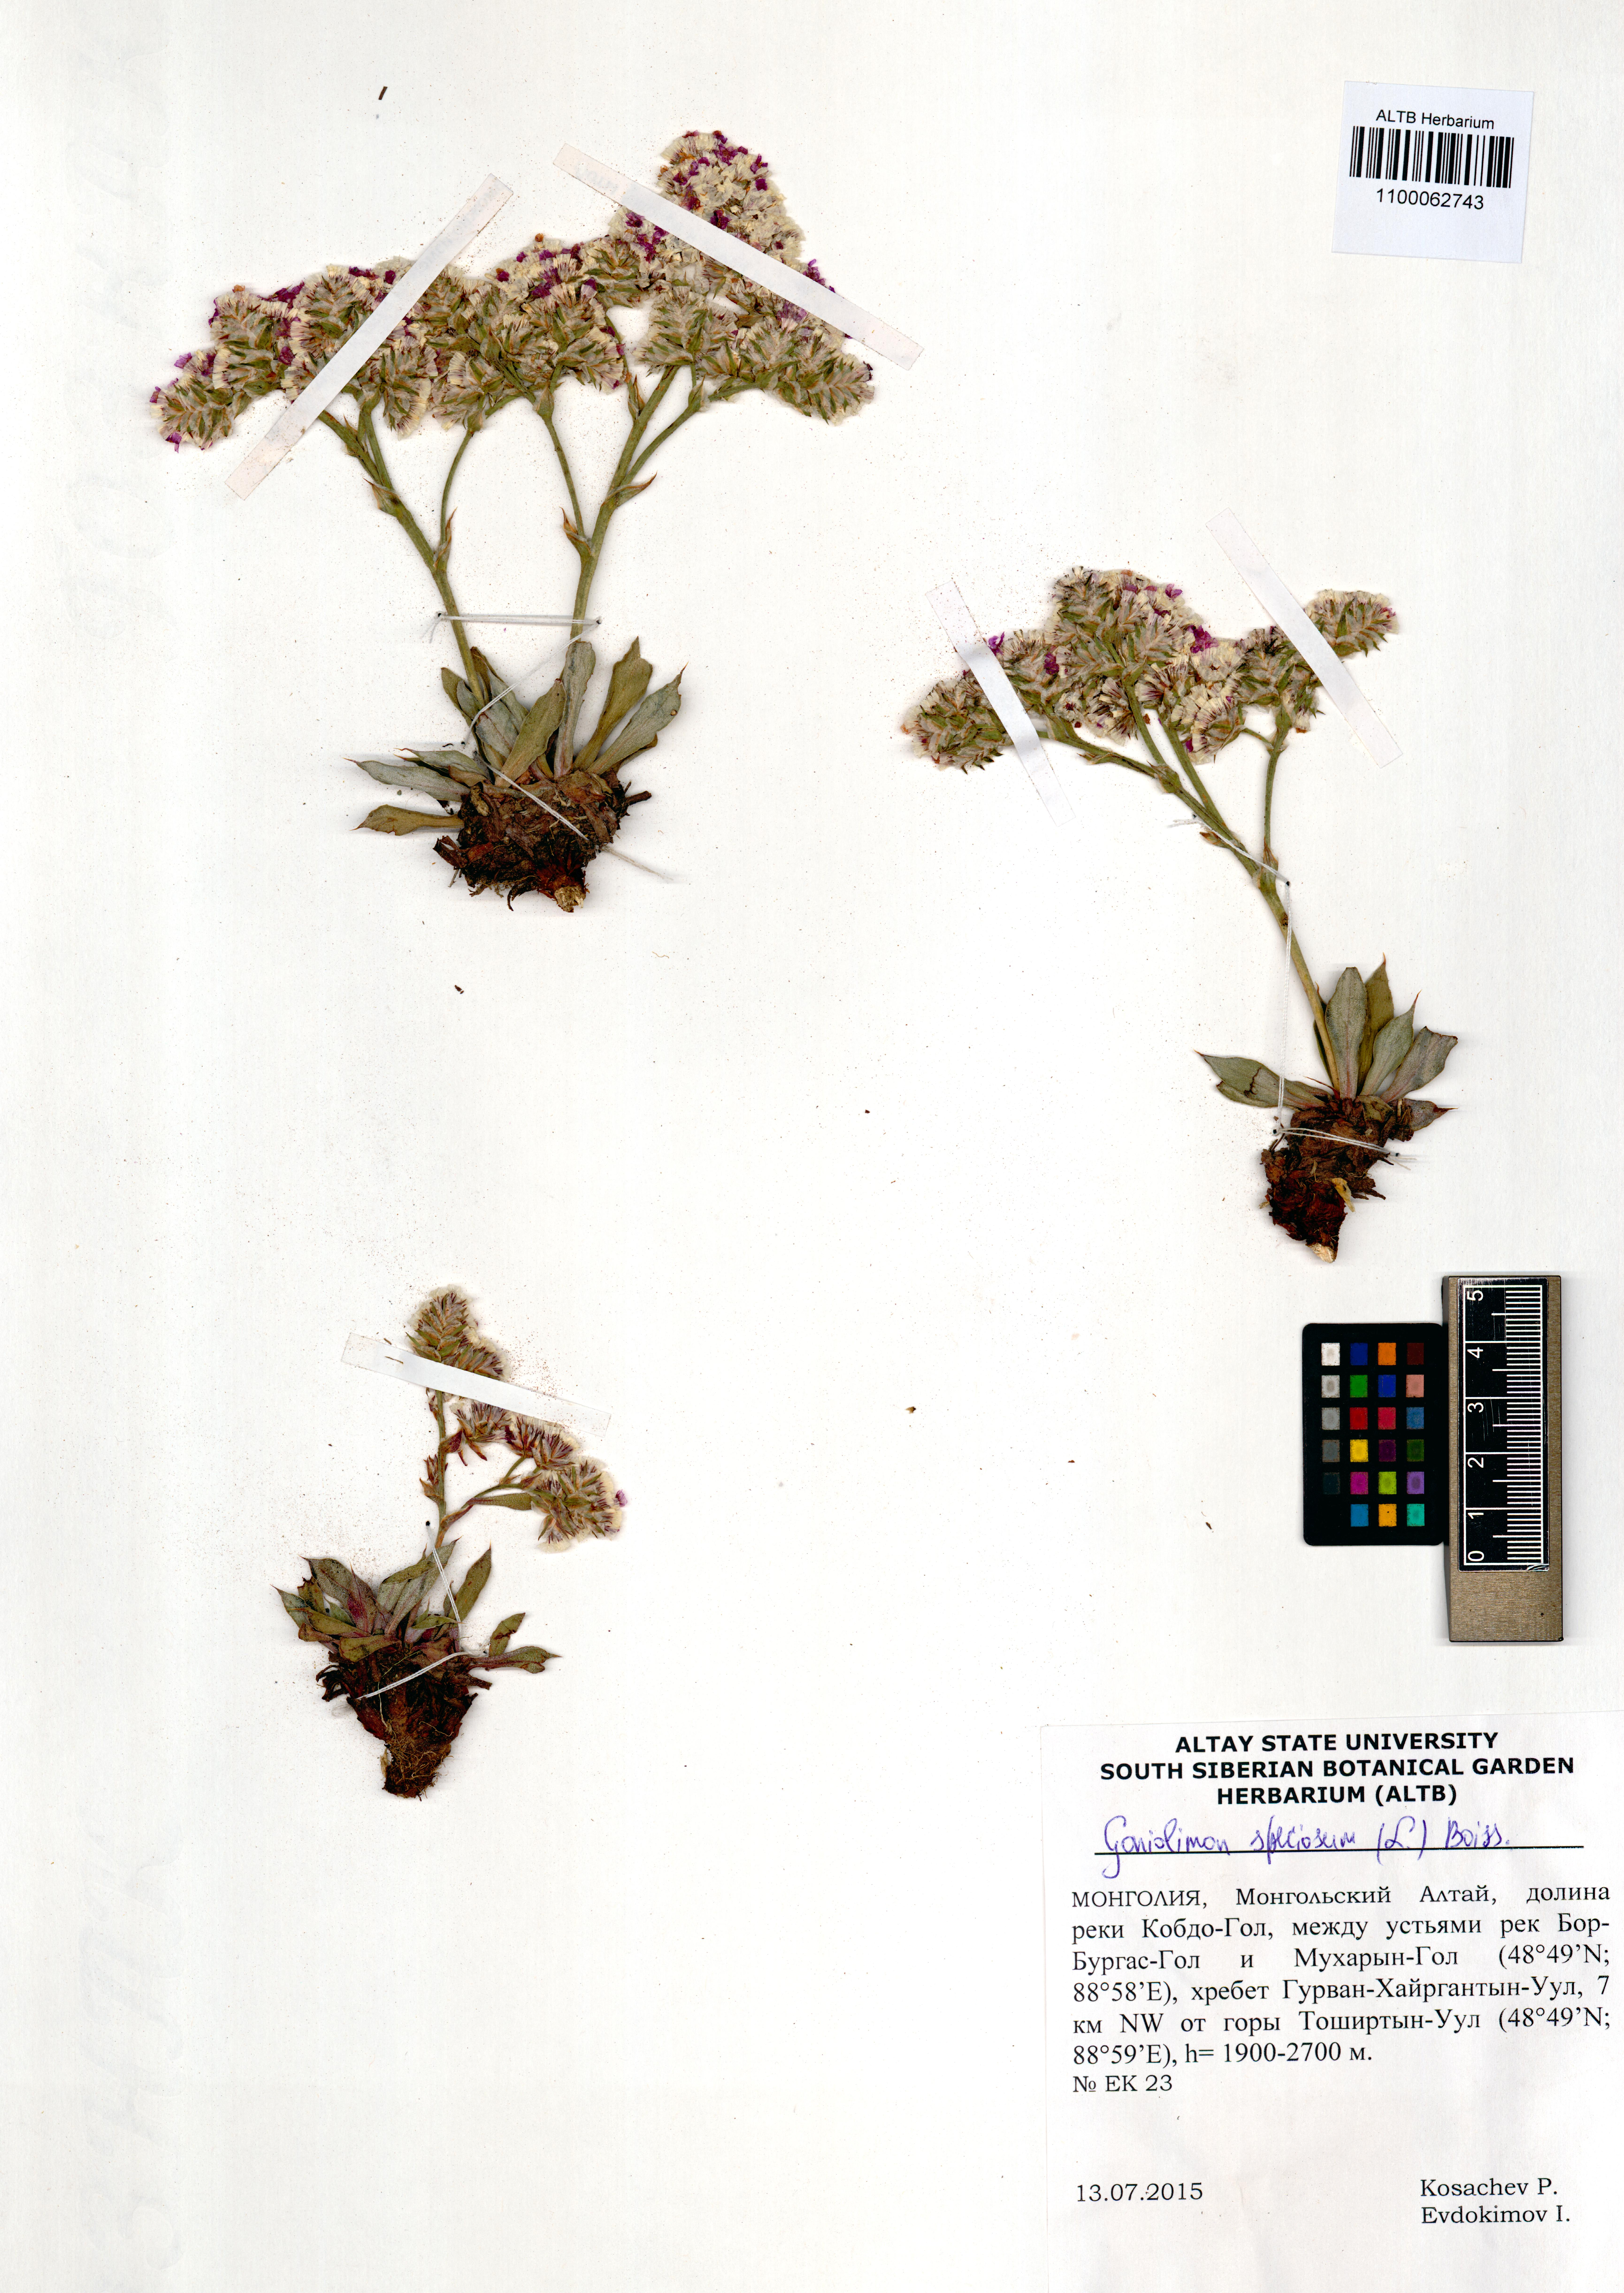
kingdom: Plantae
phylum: Tracheophyta
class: Magnoliopsida
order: Caryophyllales
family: Plumbaginaceae
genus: Goniolimon
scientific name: Goniolimon speciosum
